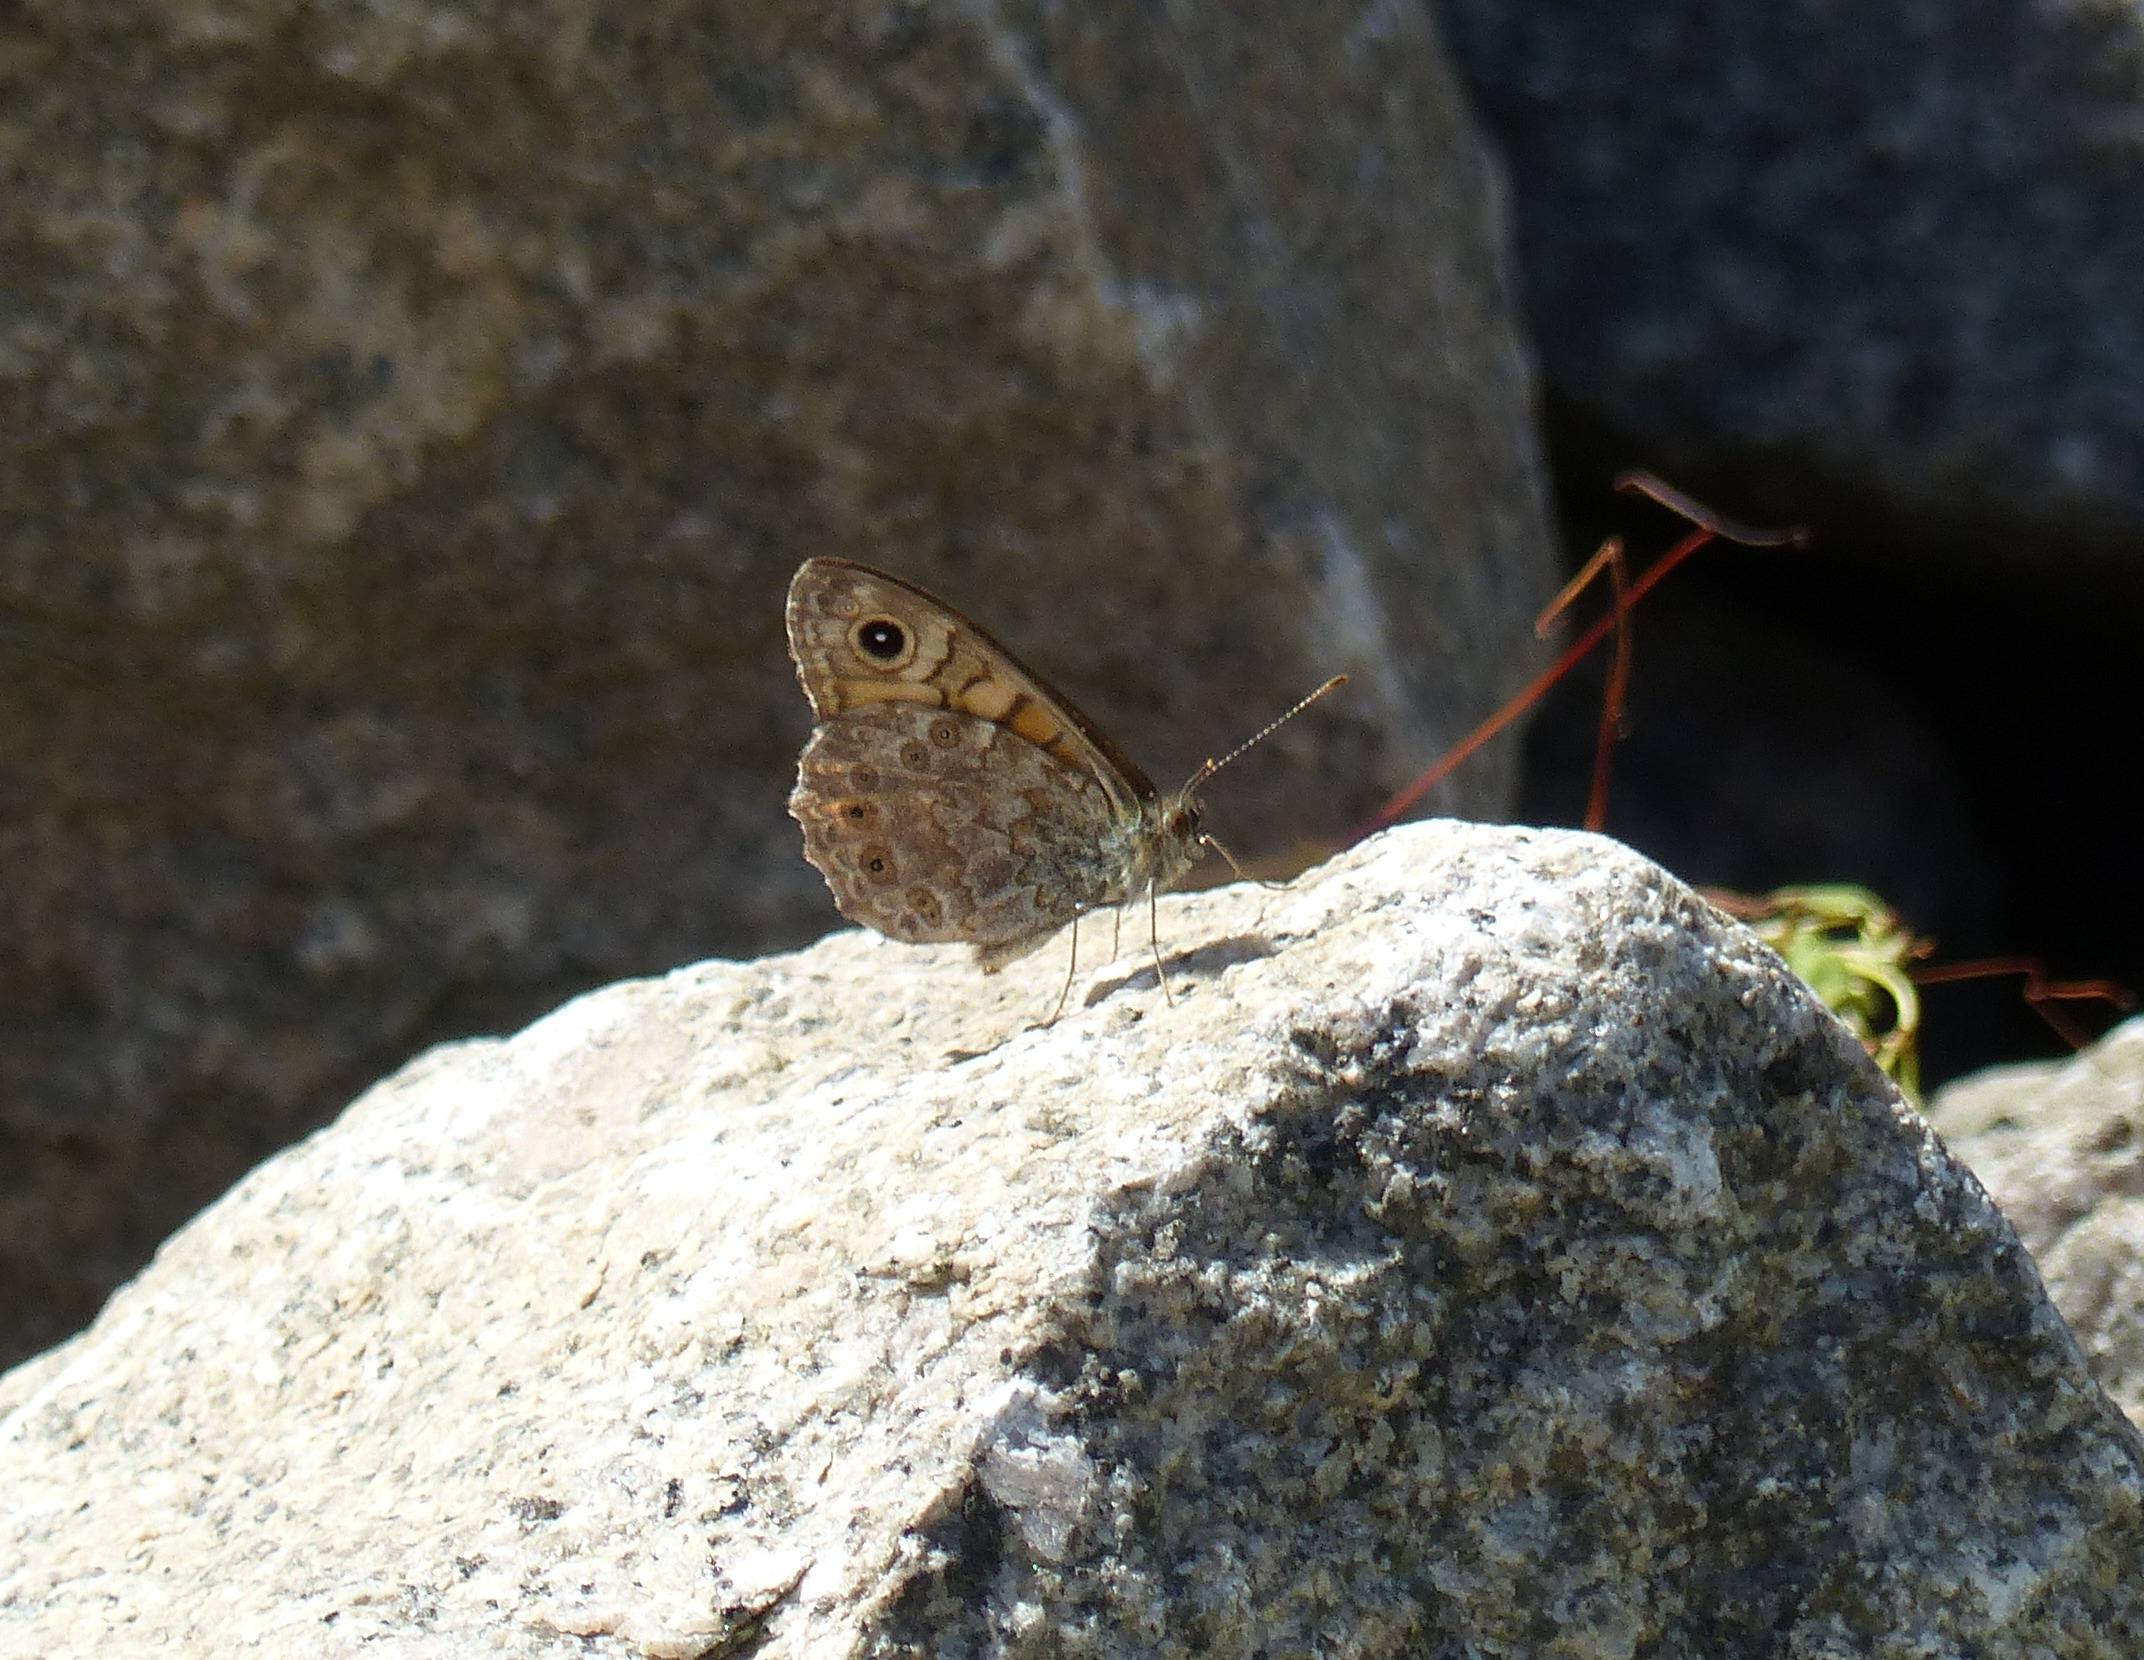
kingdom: Animalia
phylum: Arthropoda
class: Insecta
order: Lepidoptera
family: Nymphalidae
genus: Pararge
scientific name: Pararge Lasiommata megera
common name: Vejrandøje
